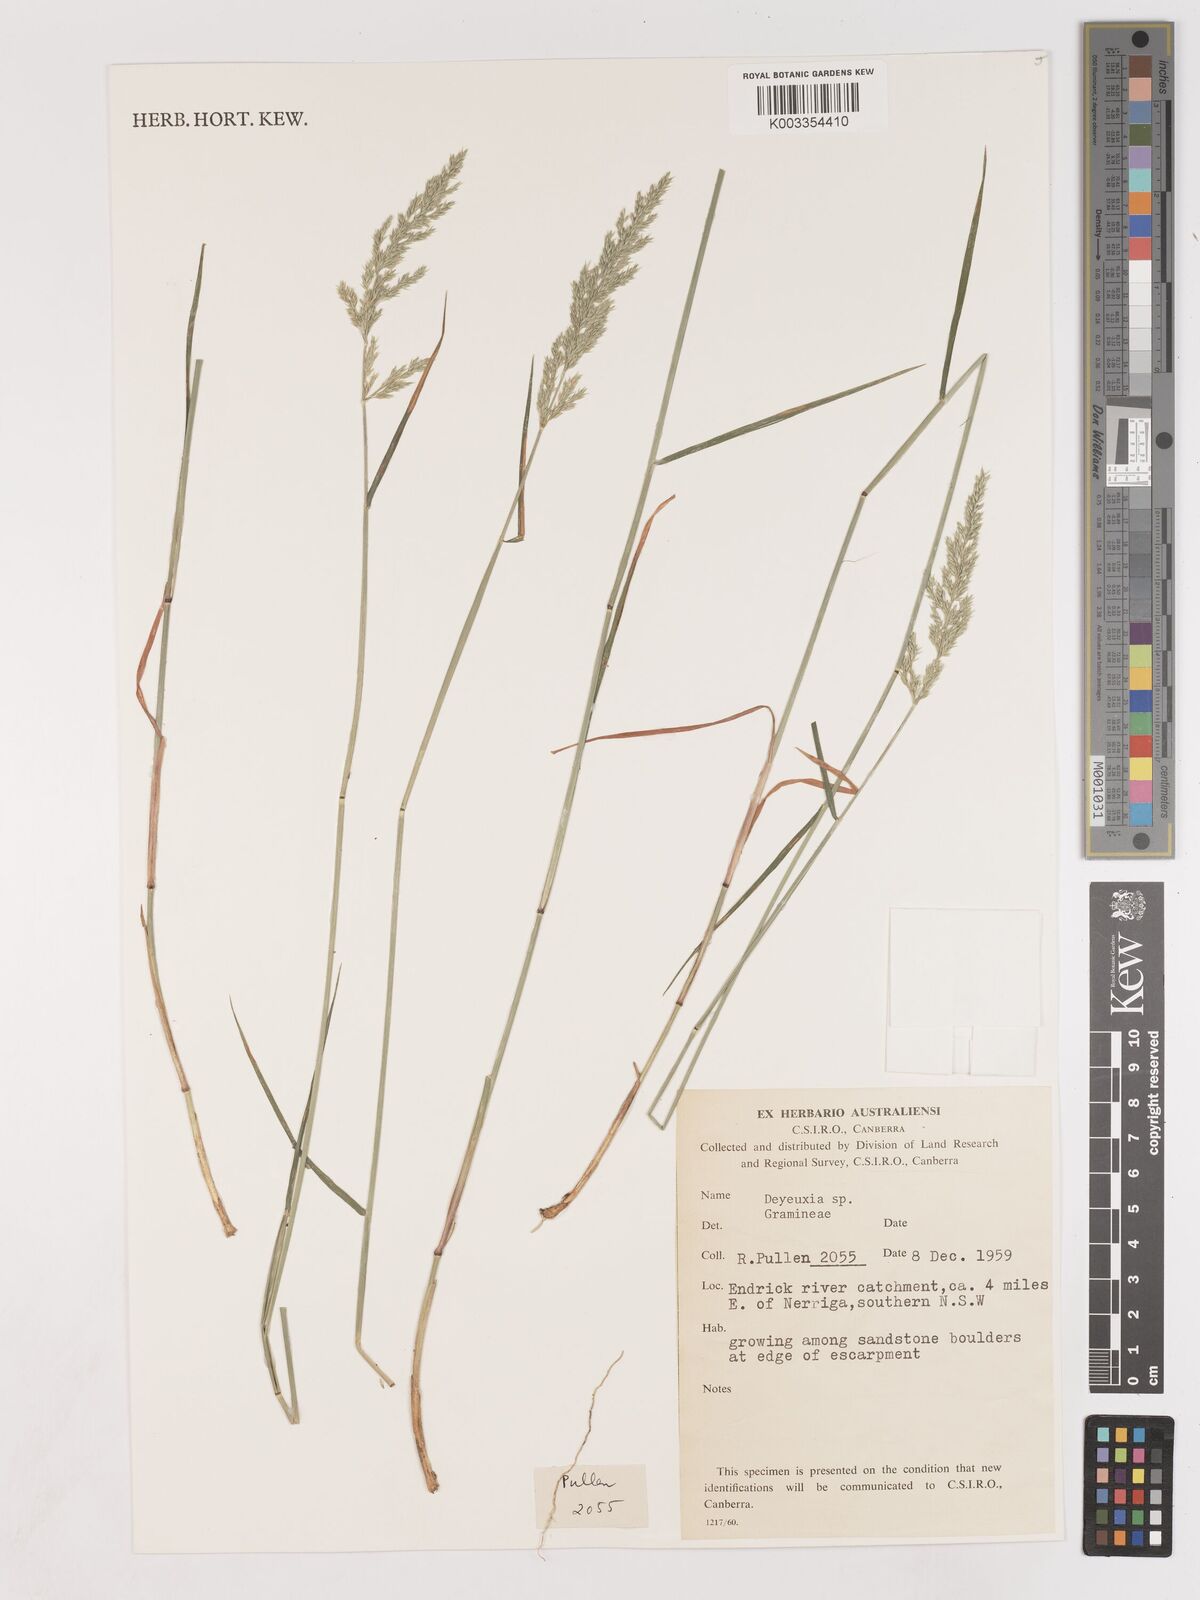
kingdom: Plantae
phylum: Tracheophyta
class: Liliopsida
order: Poales
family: Poaceae
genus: Calamagrostis
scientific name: Calamagrostis
